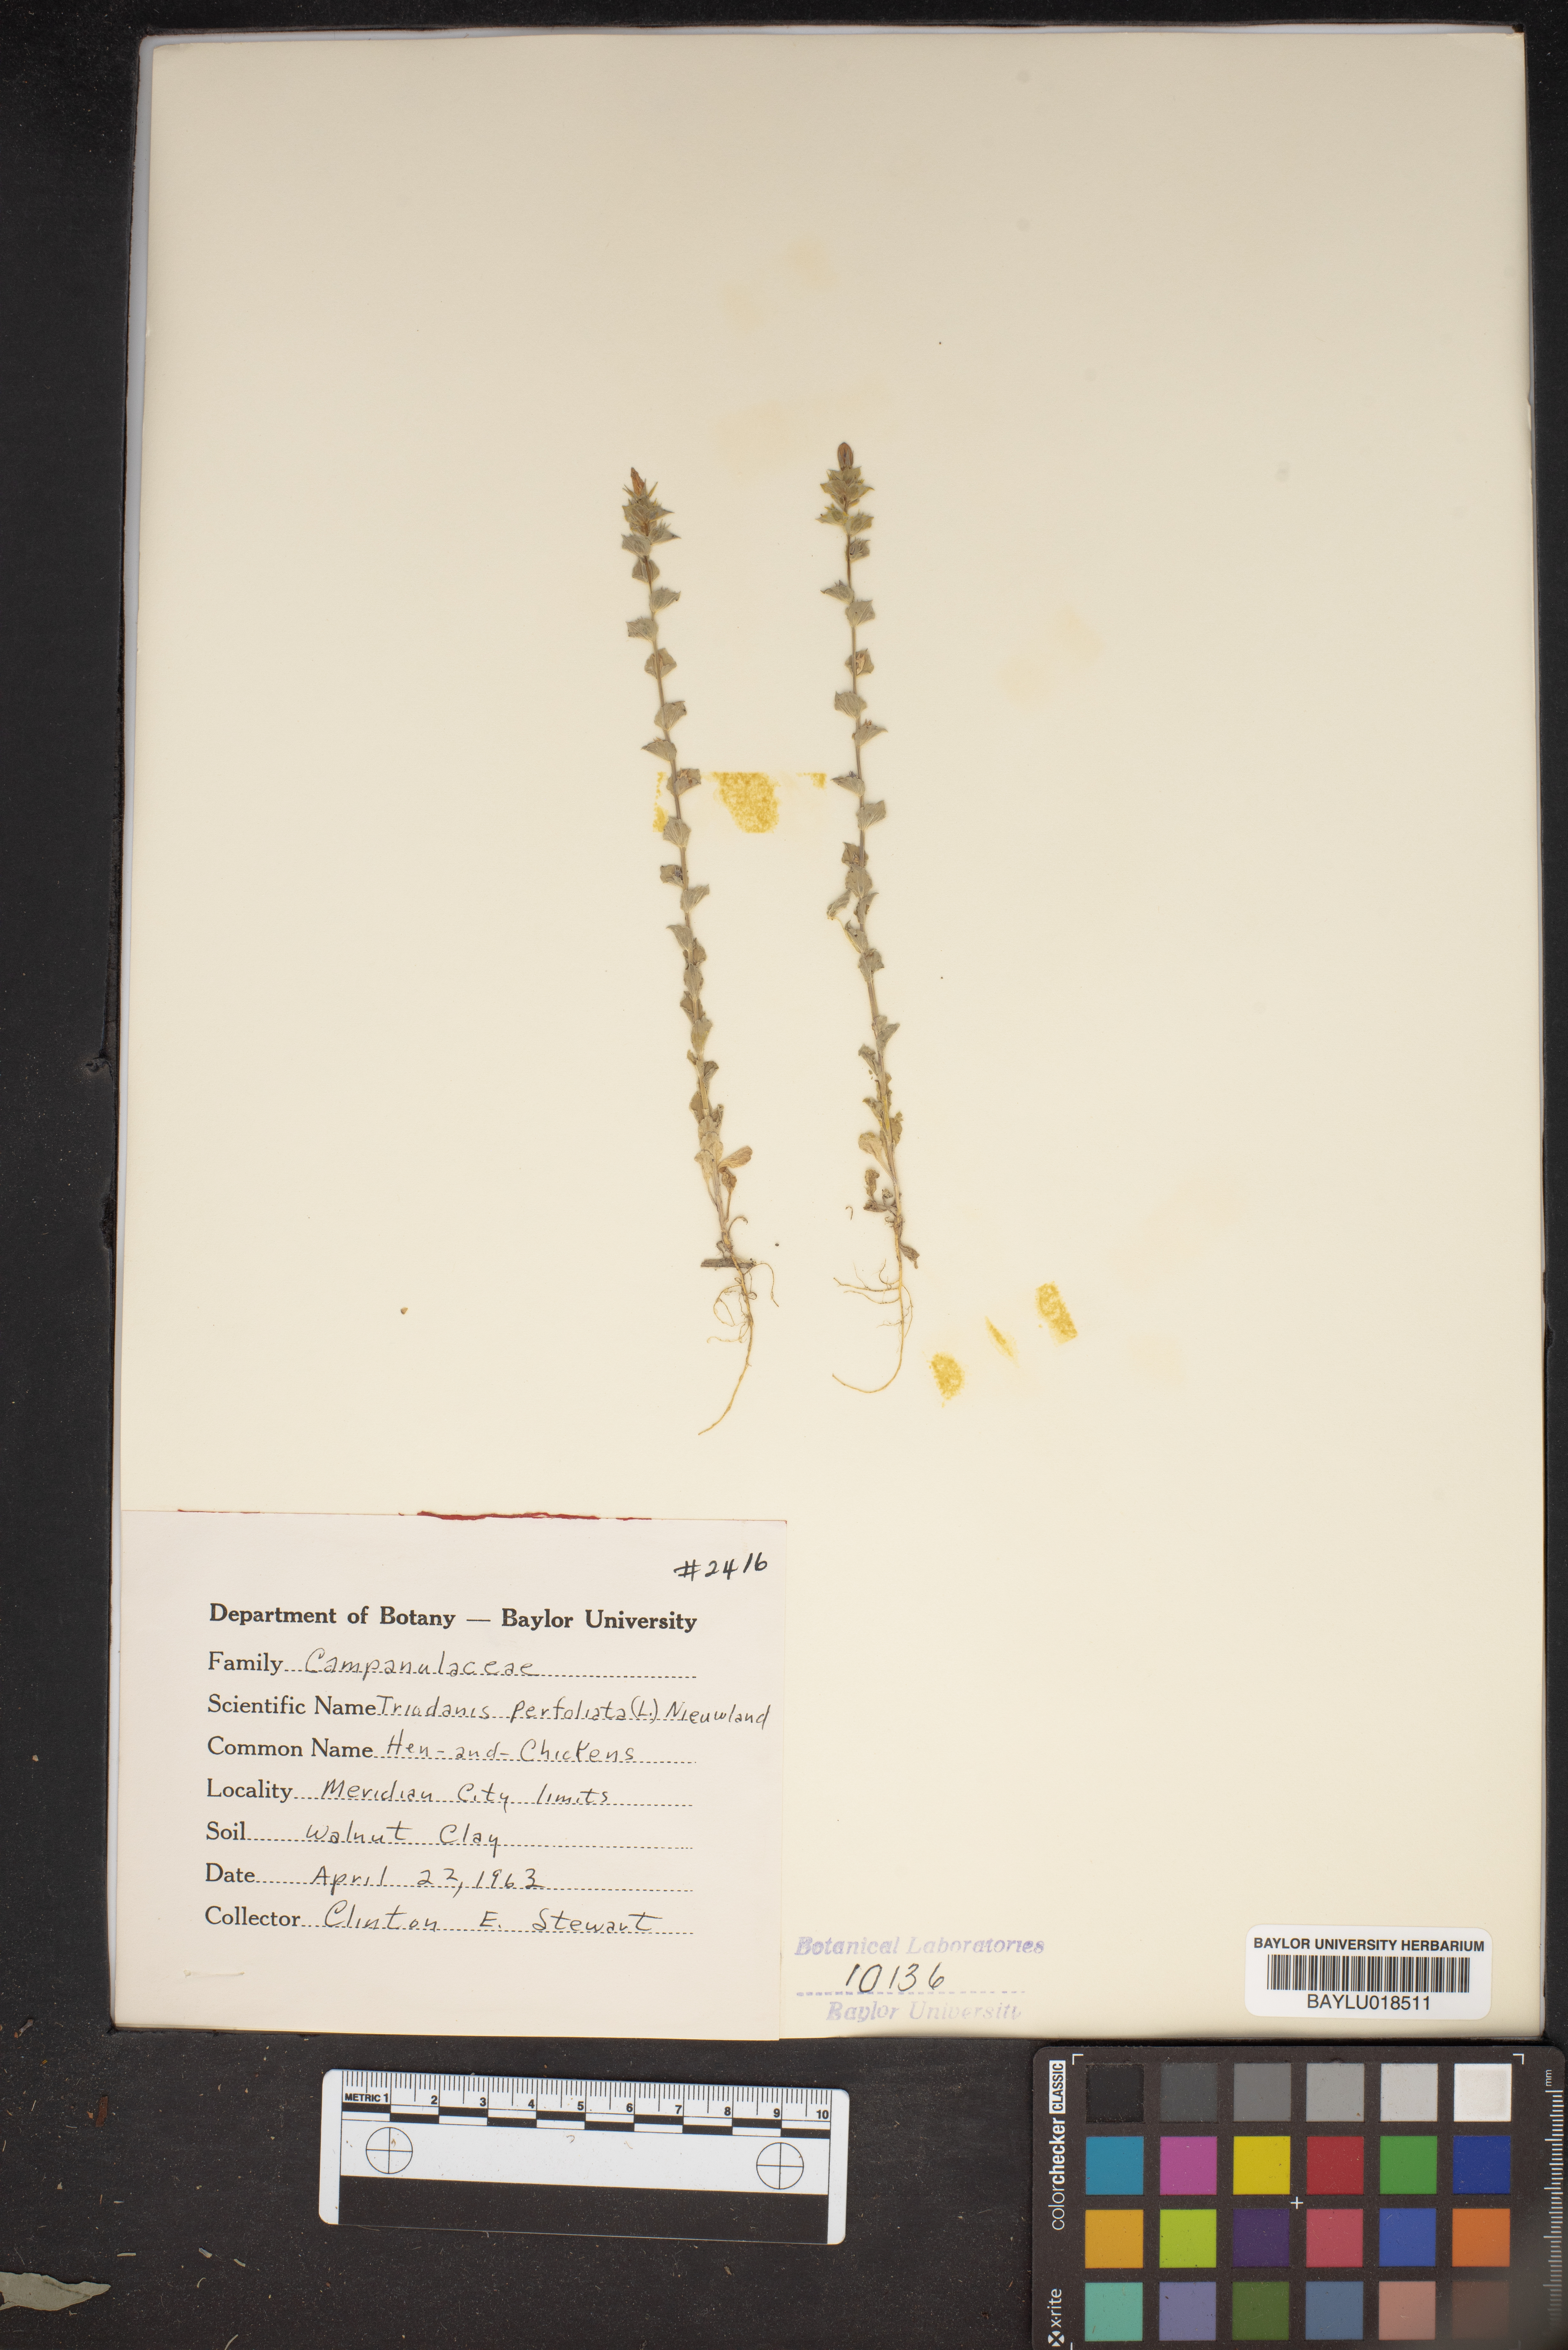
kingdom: Plantae
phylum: Tracheophyta
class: Magnoliopsida
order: Asterales
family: Campanulaceae
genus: Triodanis
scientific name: Triodanis perfoliata
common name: Clasping venus' looking-glass
